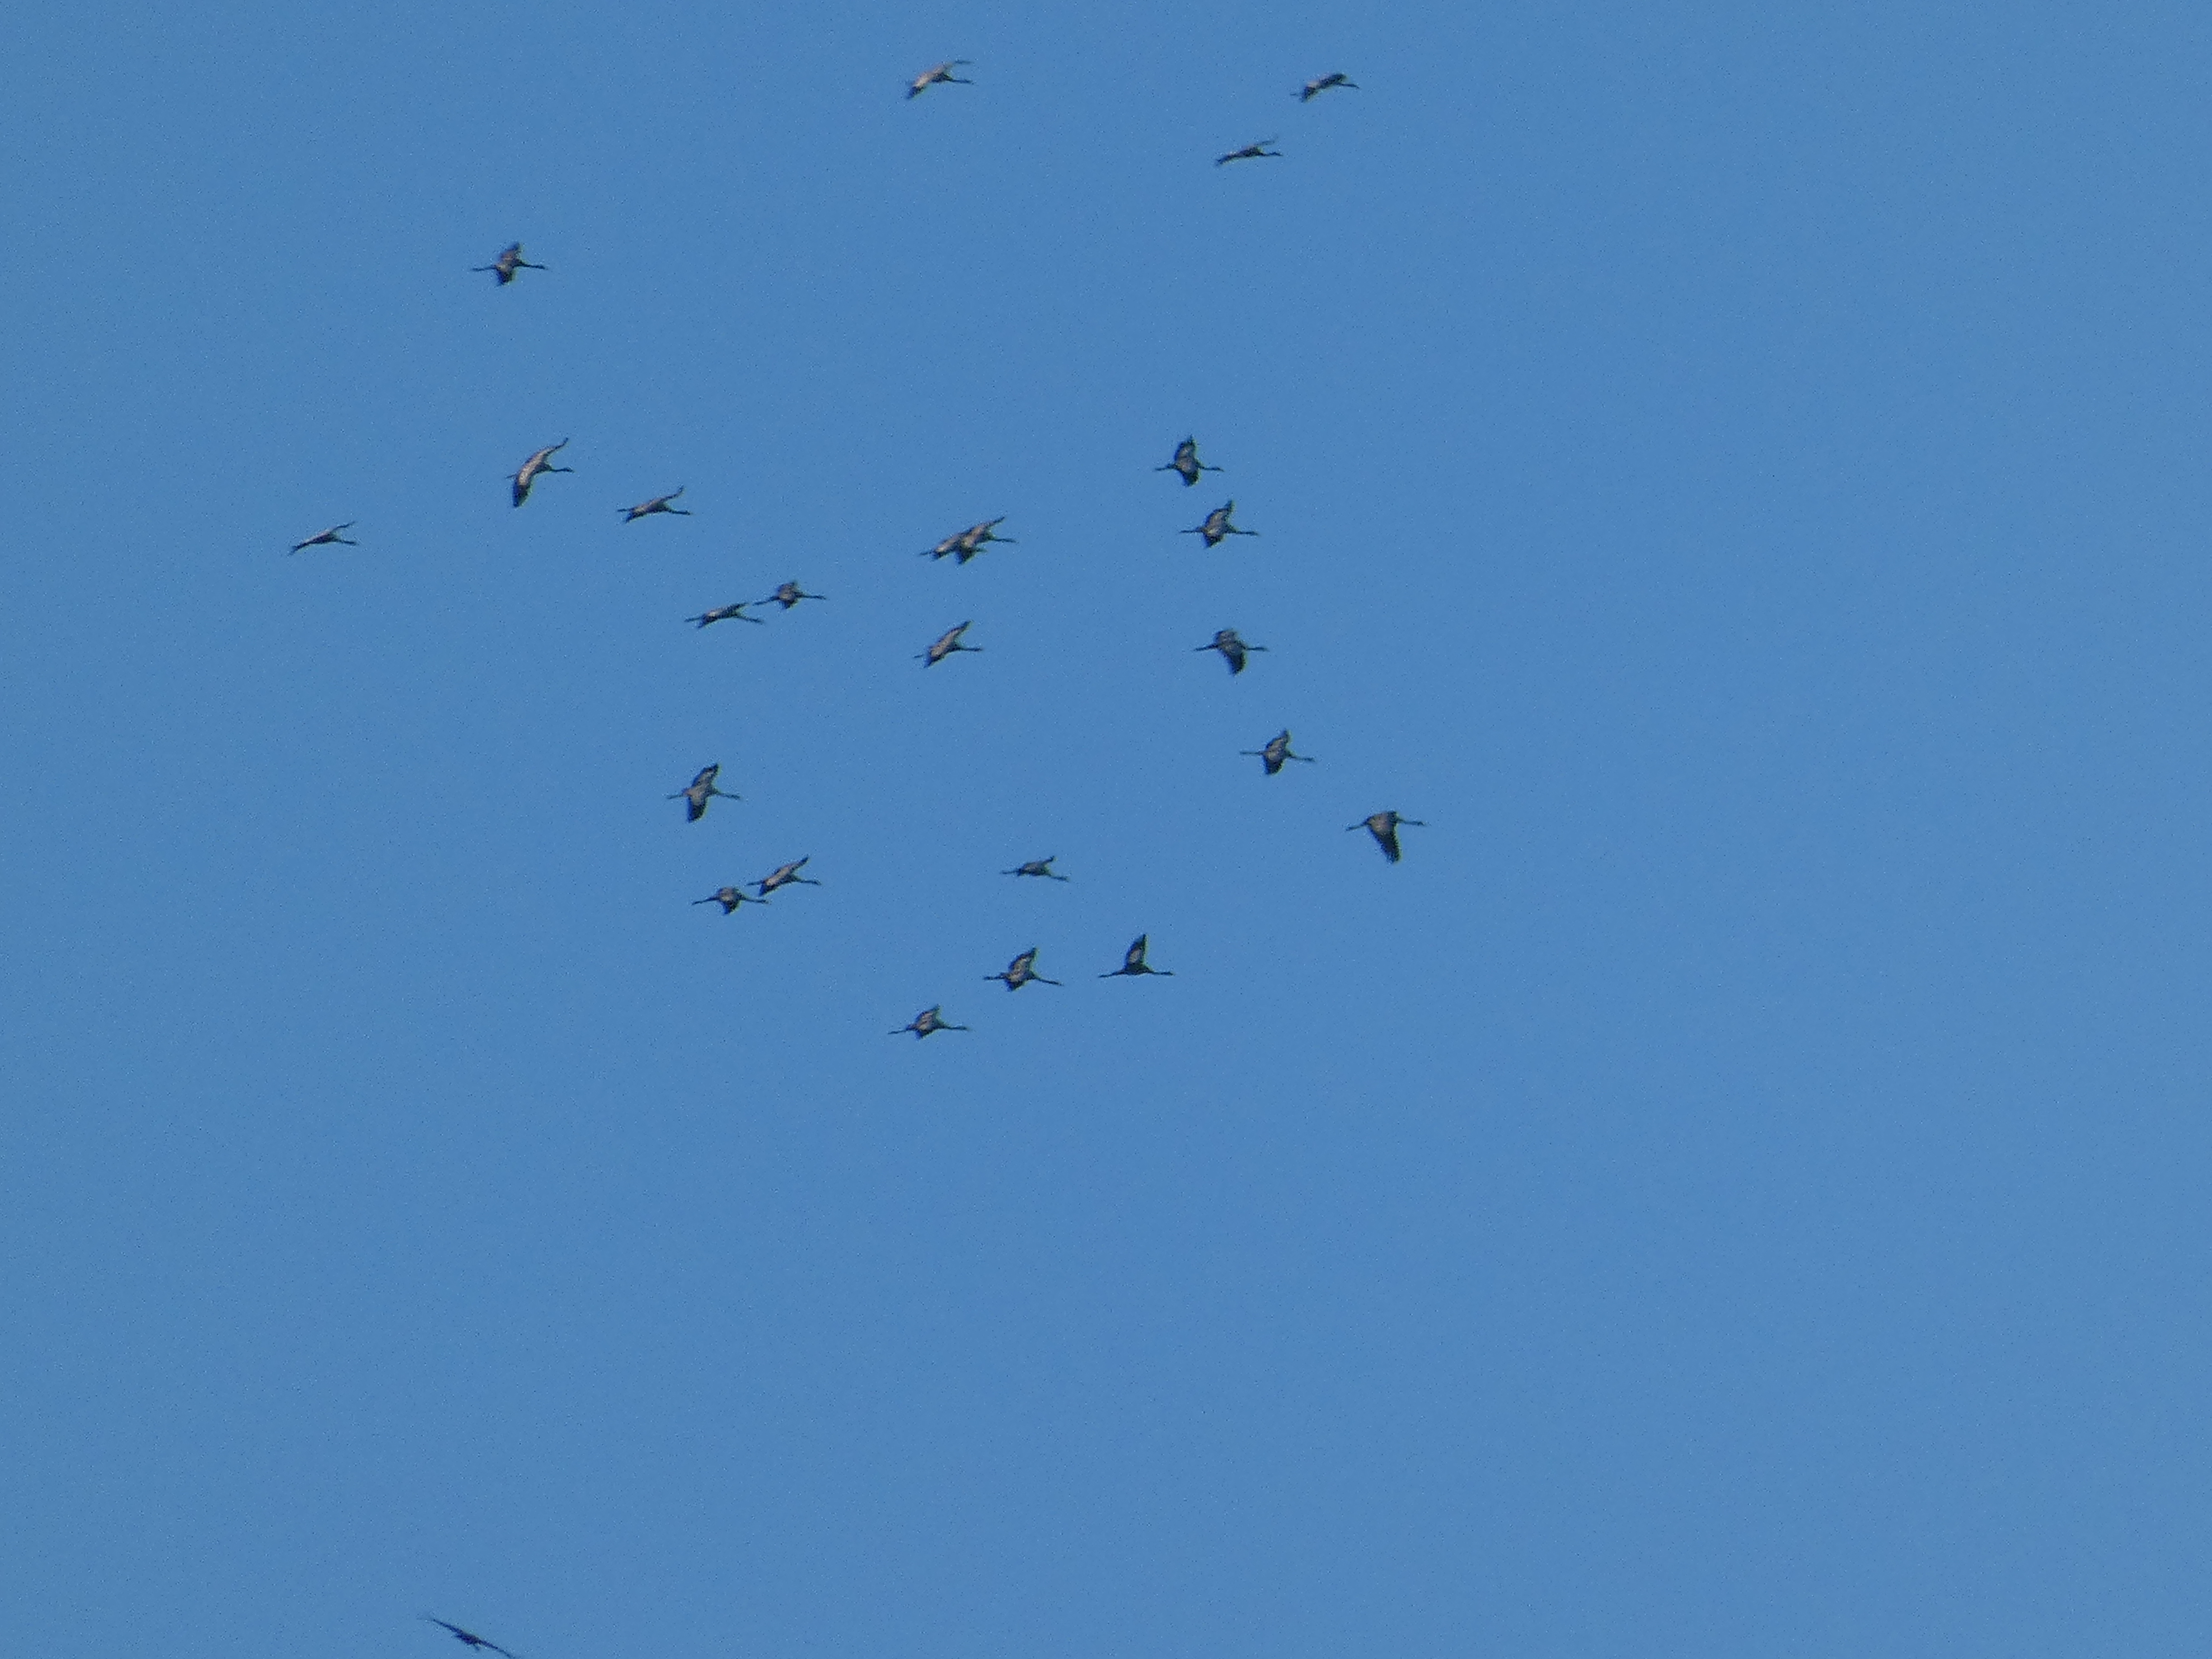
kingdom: Animalia
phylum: Chordata
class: Aves
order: Gruiformes
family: Gruidae
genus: Grus
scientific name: Grus grus
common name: Trane
